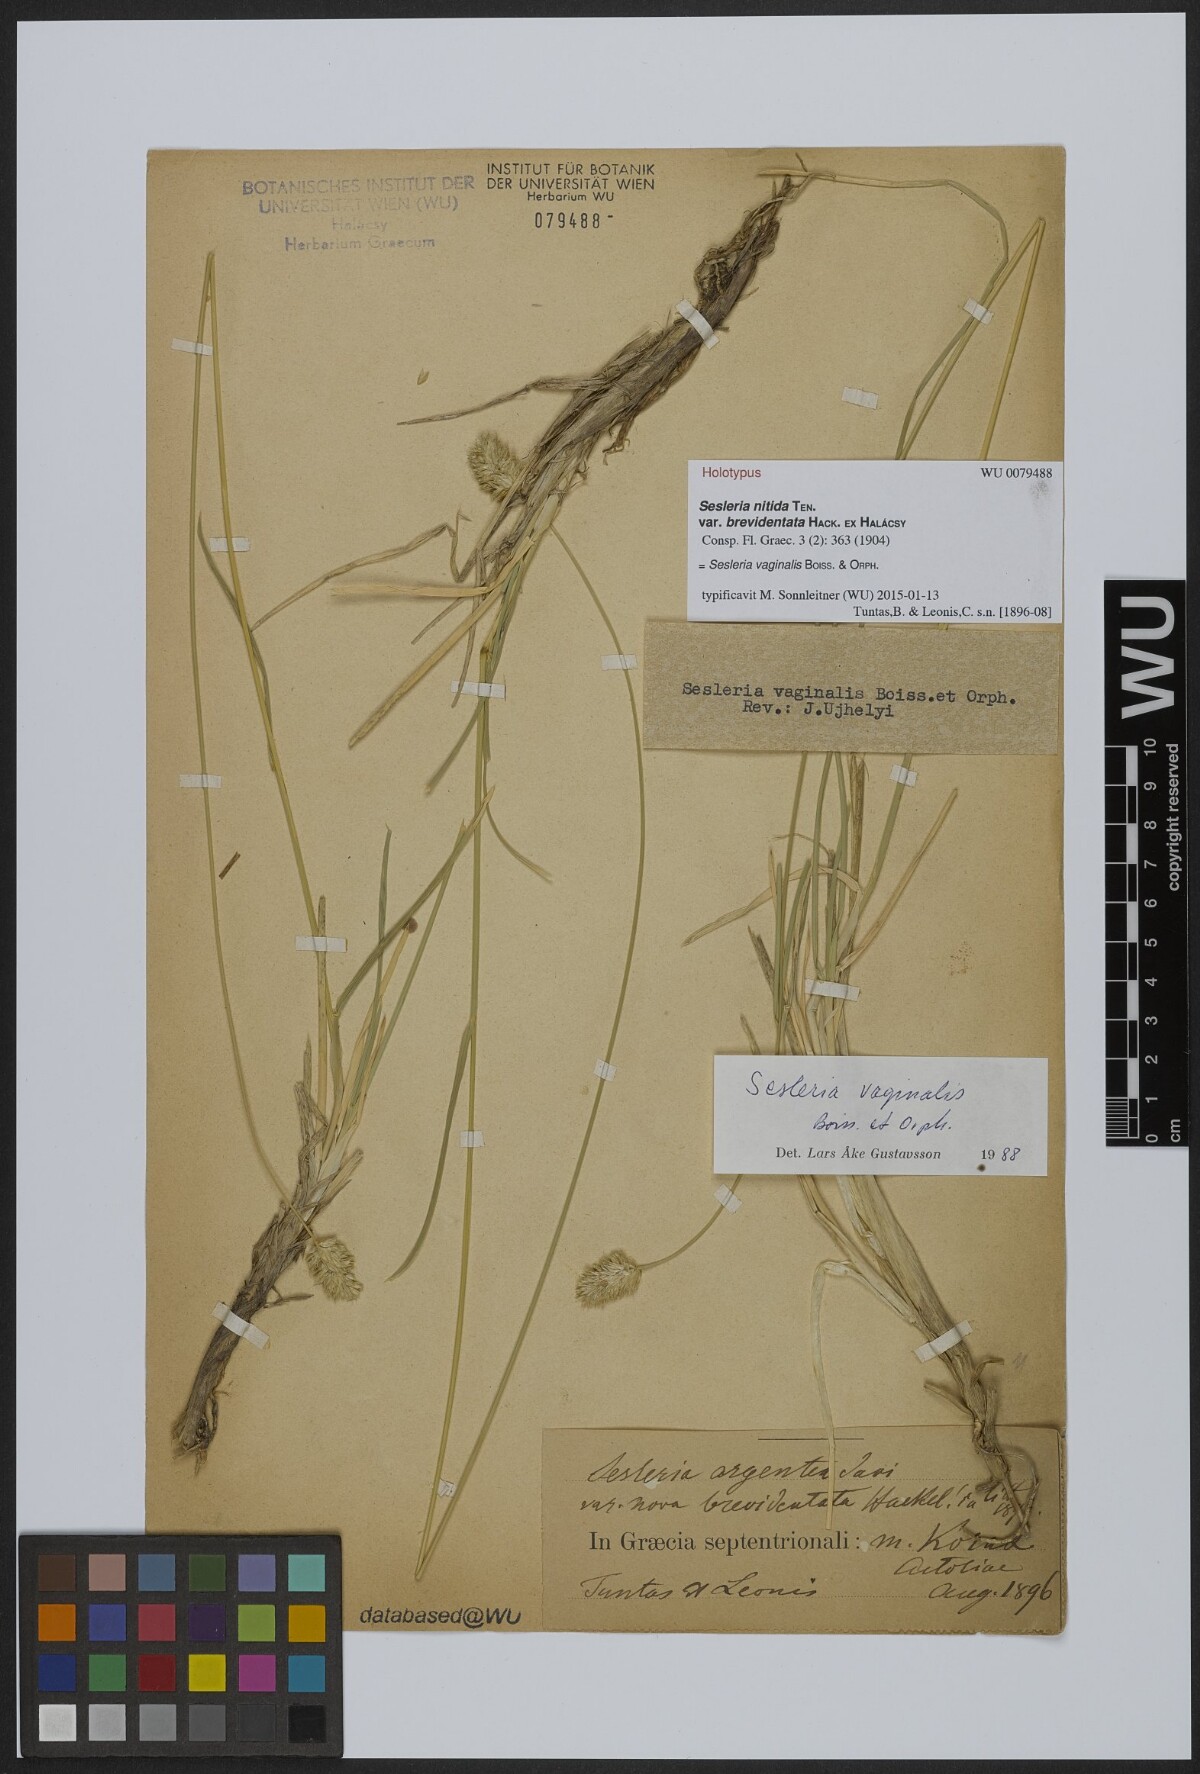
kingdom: Plantae
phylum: Tracheophyta
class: Liliopsida
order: Poales
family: Poaceae
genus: Sesleria
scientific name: Sesleria vaginalis
